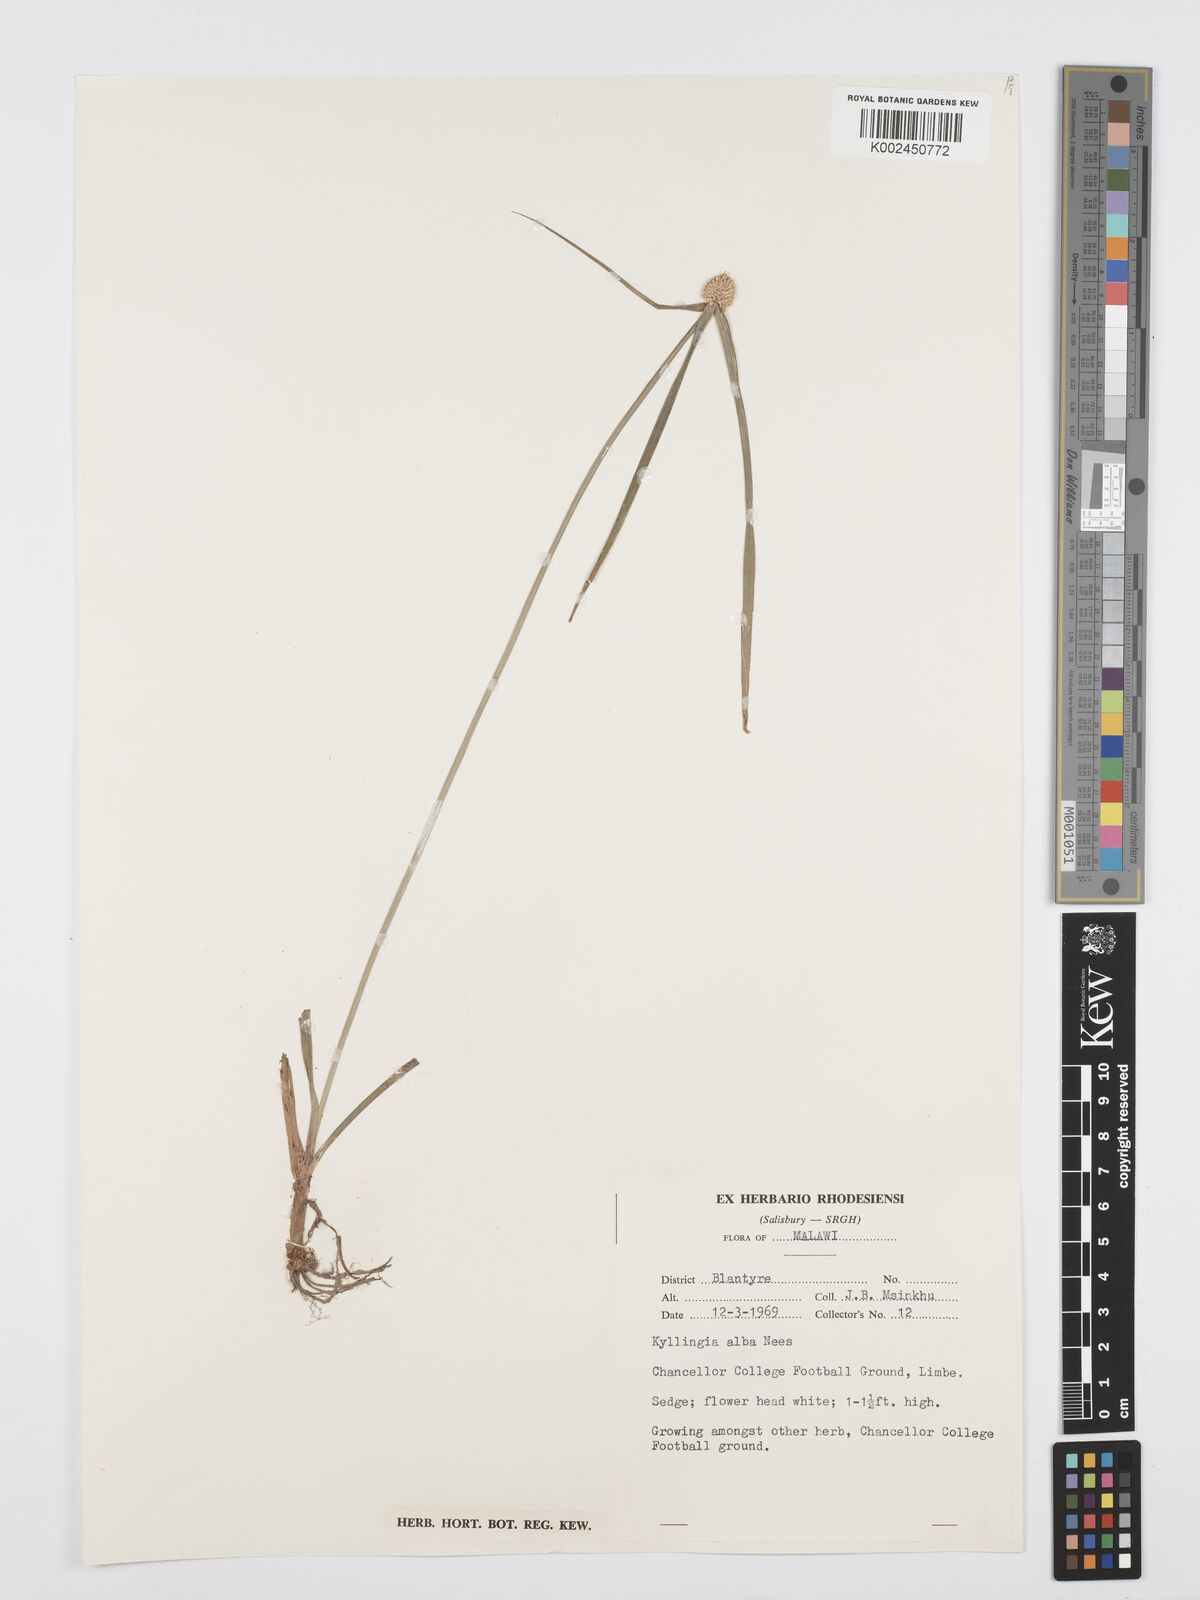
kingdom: Plantae
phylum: Tracheophyta
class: Liliopsida
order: Poales
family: Cyperaceae
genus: Cyperus
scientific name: Cyperus rukwanus
